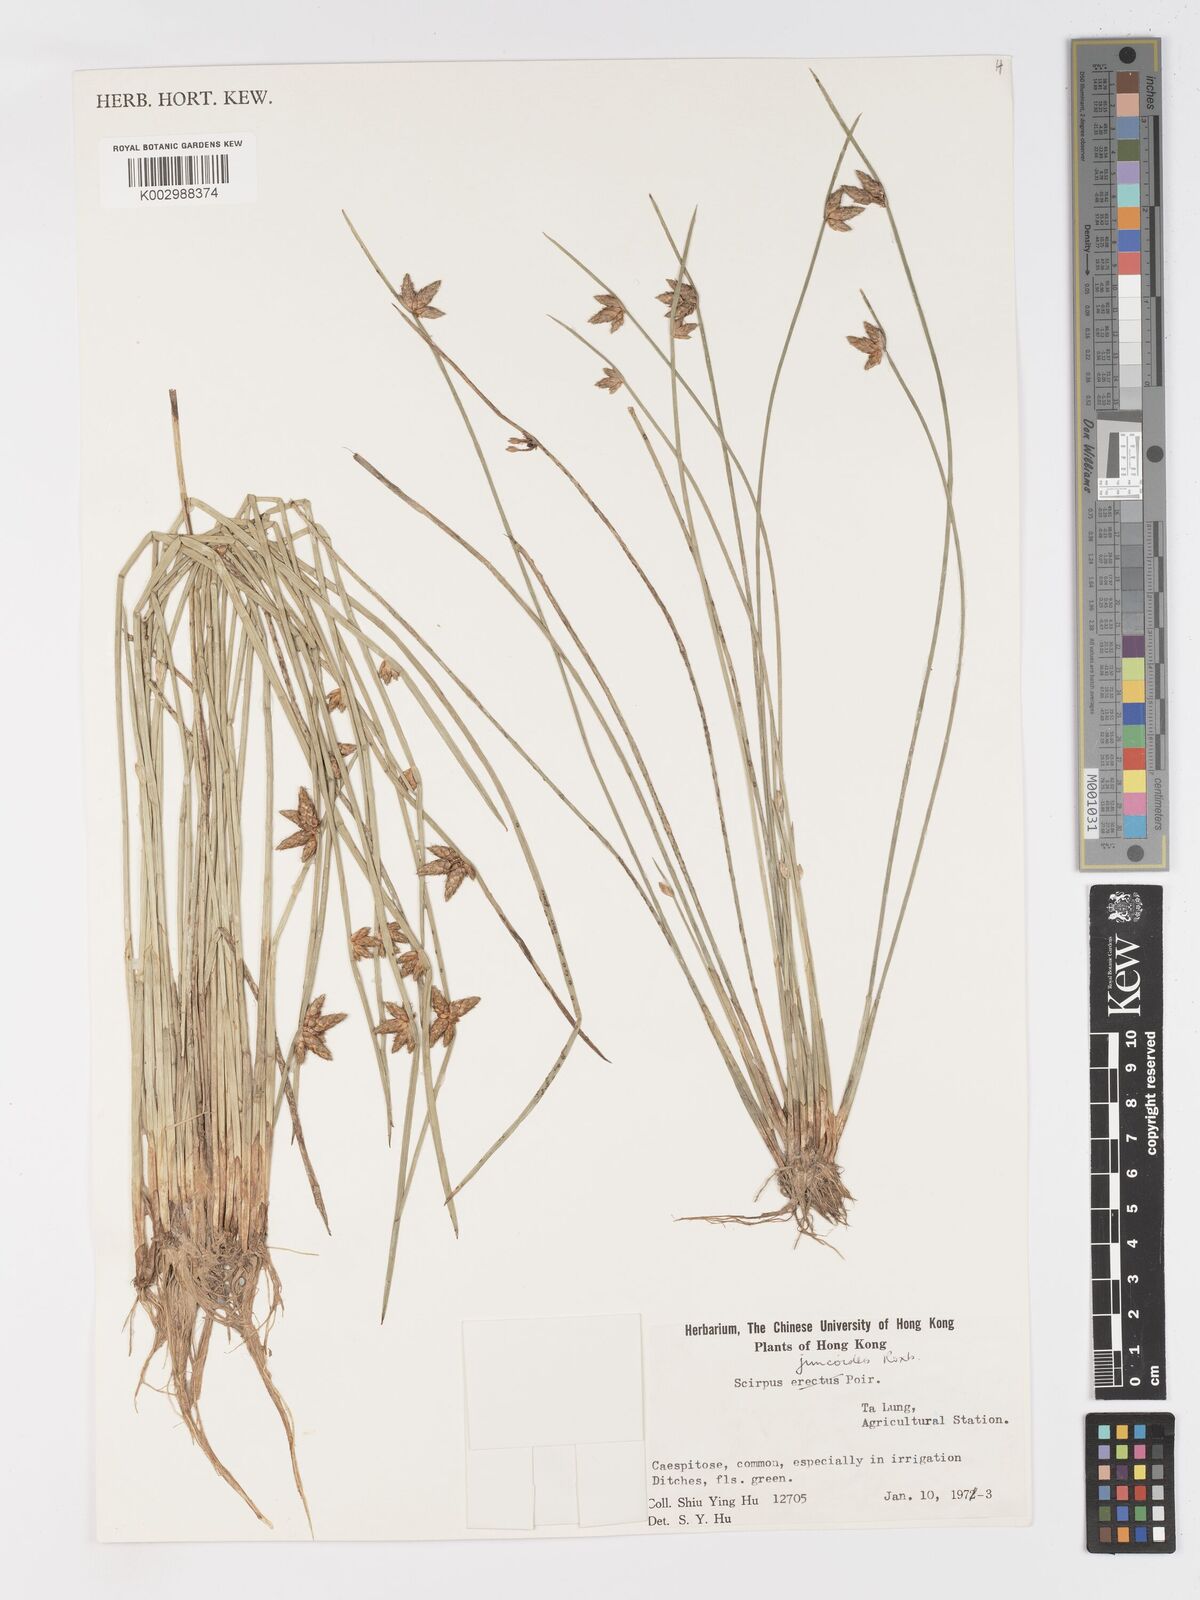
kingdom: Plantae
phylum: Tracheophyta
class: Liliopsida
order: Poales
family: Cyperaceae
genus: Schoenoplectiella
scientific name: Schoenoplectiella juncoides
